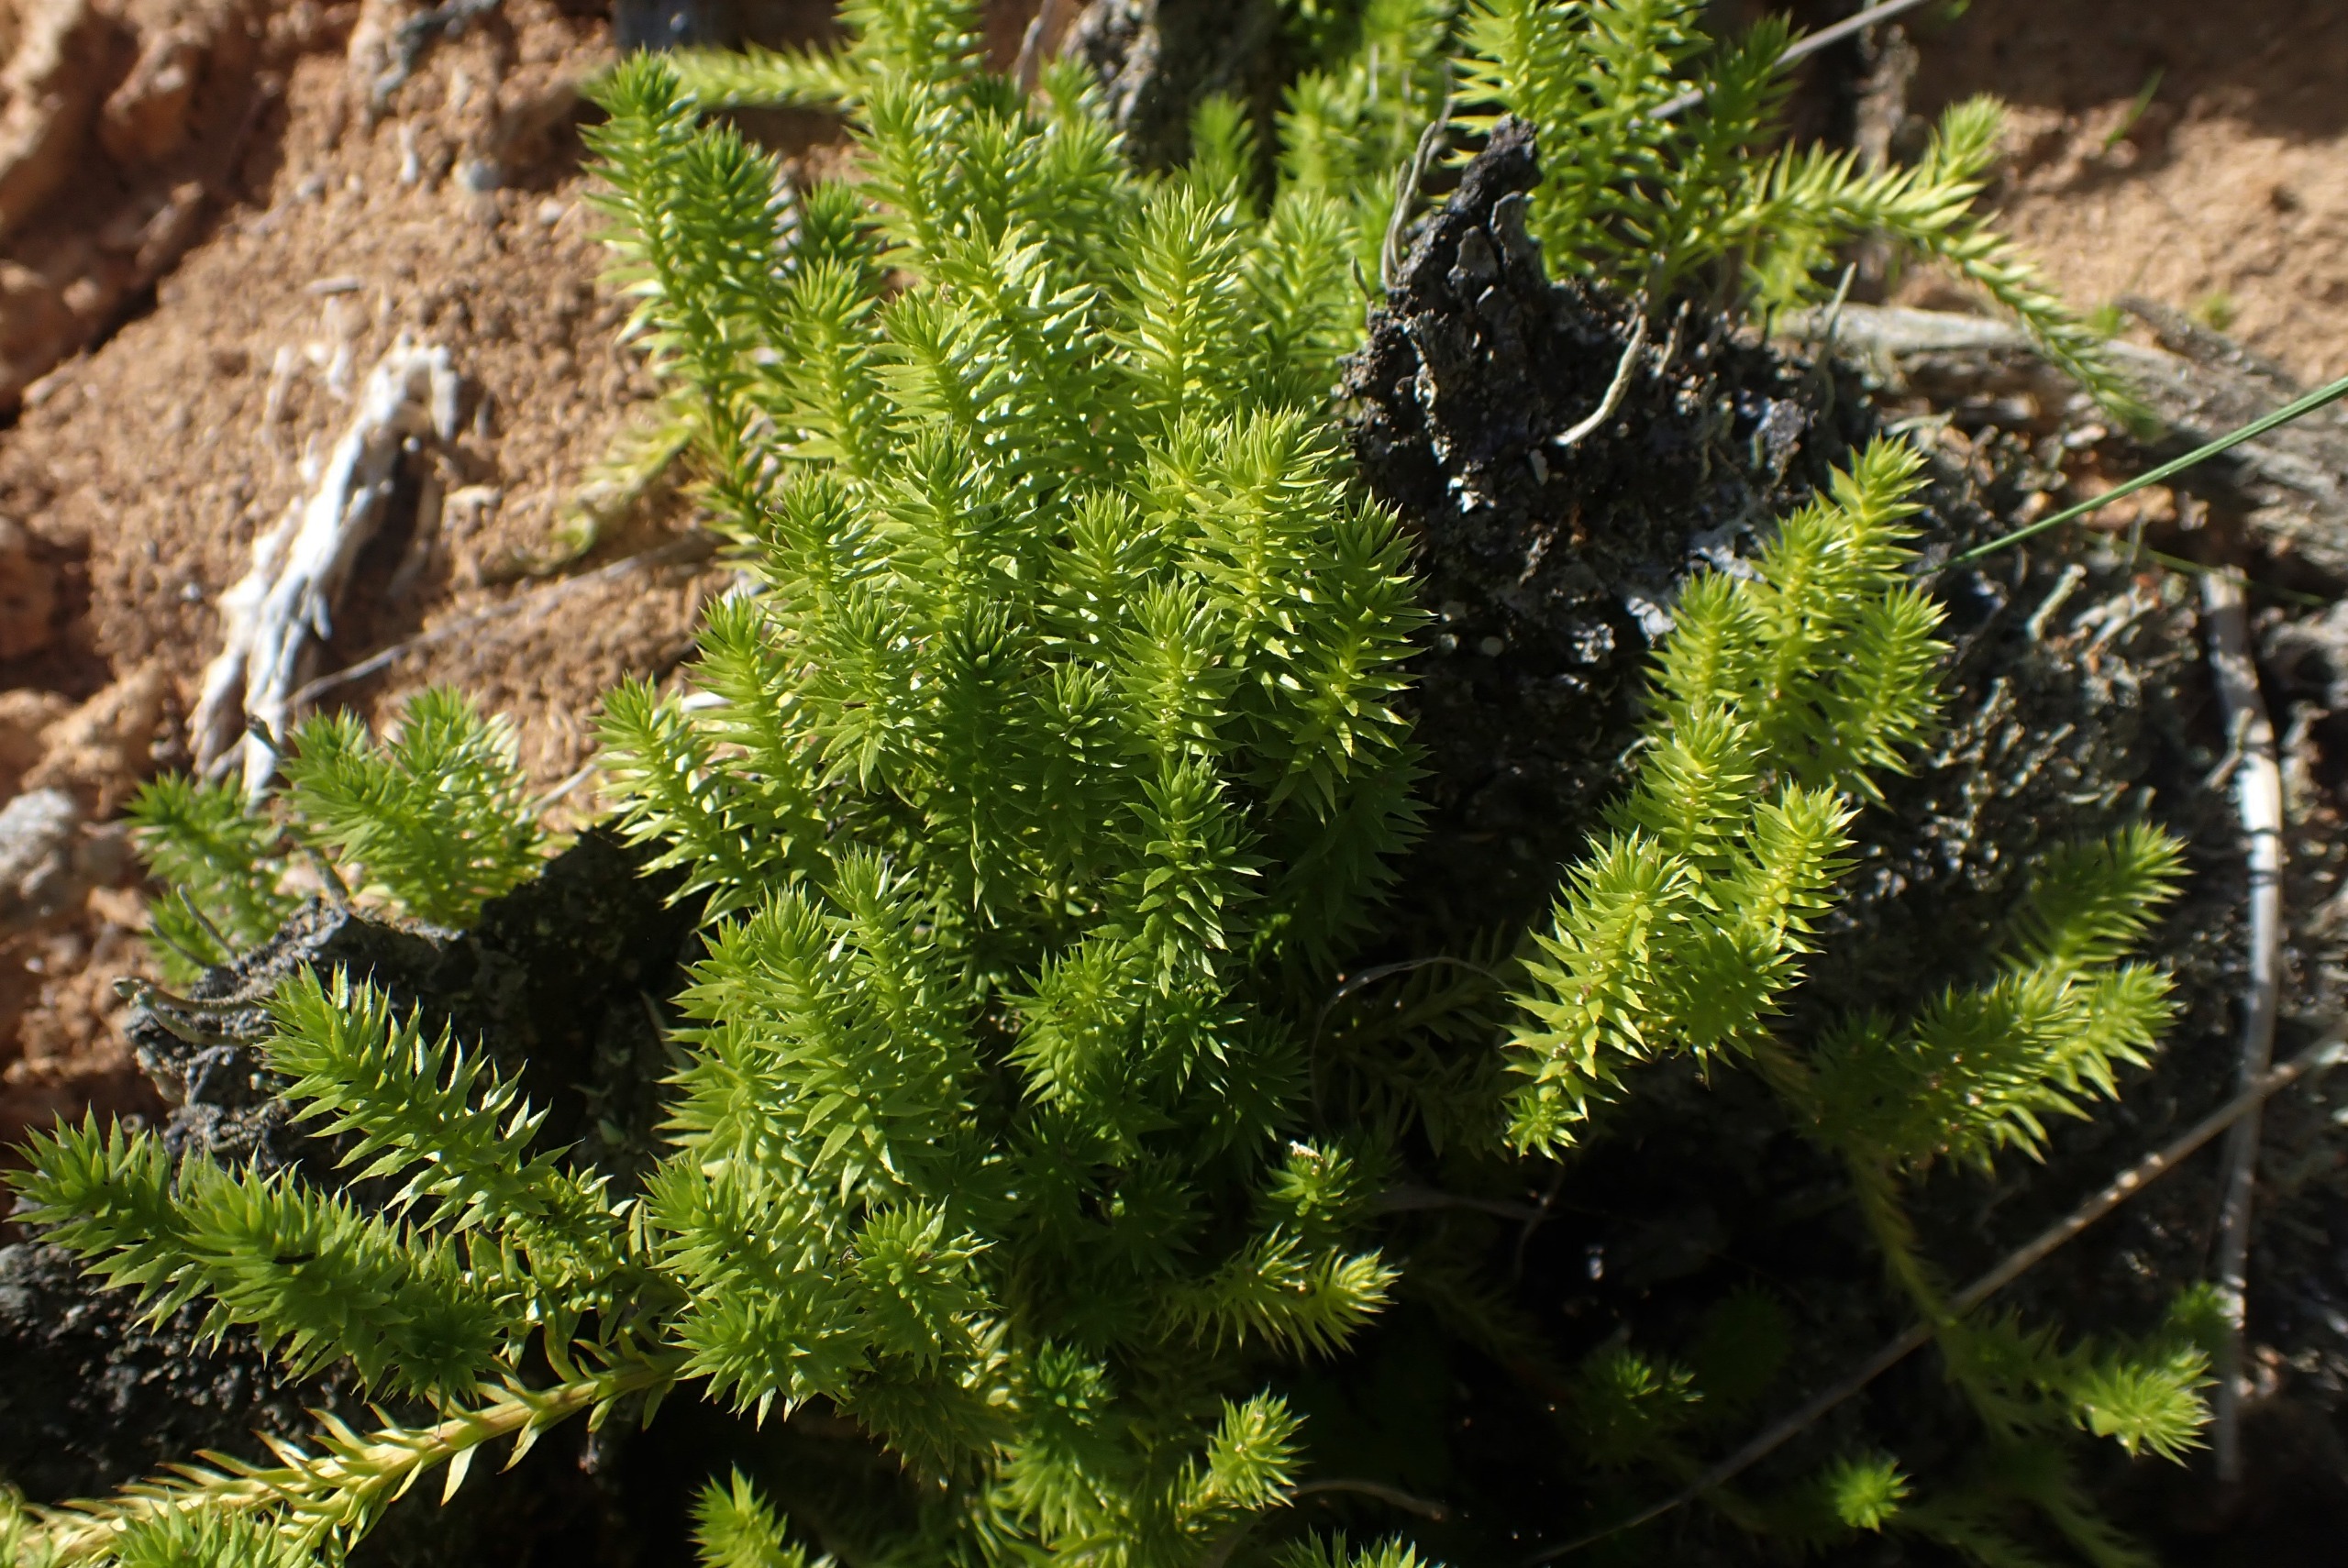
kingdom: Plantae
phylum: Tracheophyta
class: Lycopodiopsida
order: Lycopodiales
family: Lycopodiaceae
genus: Spinulum
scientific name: Spinulum annotinum
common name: Femradet ulvefod
